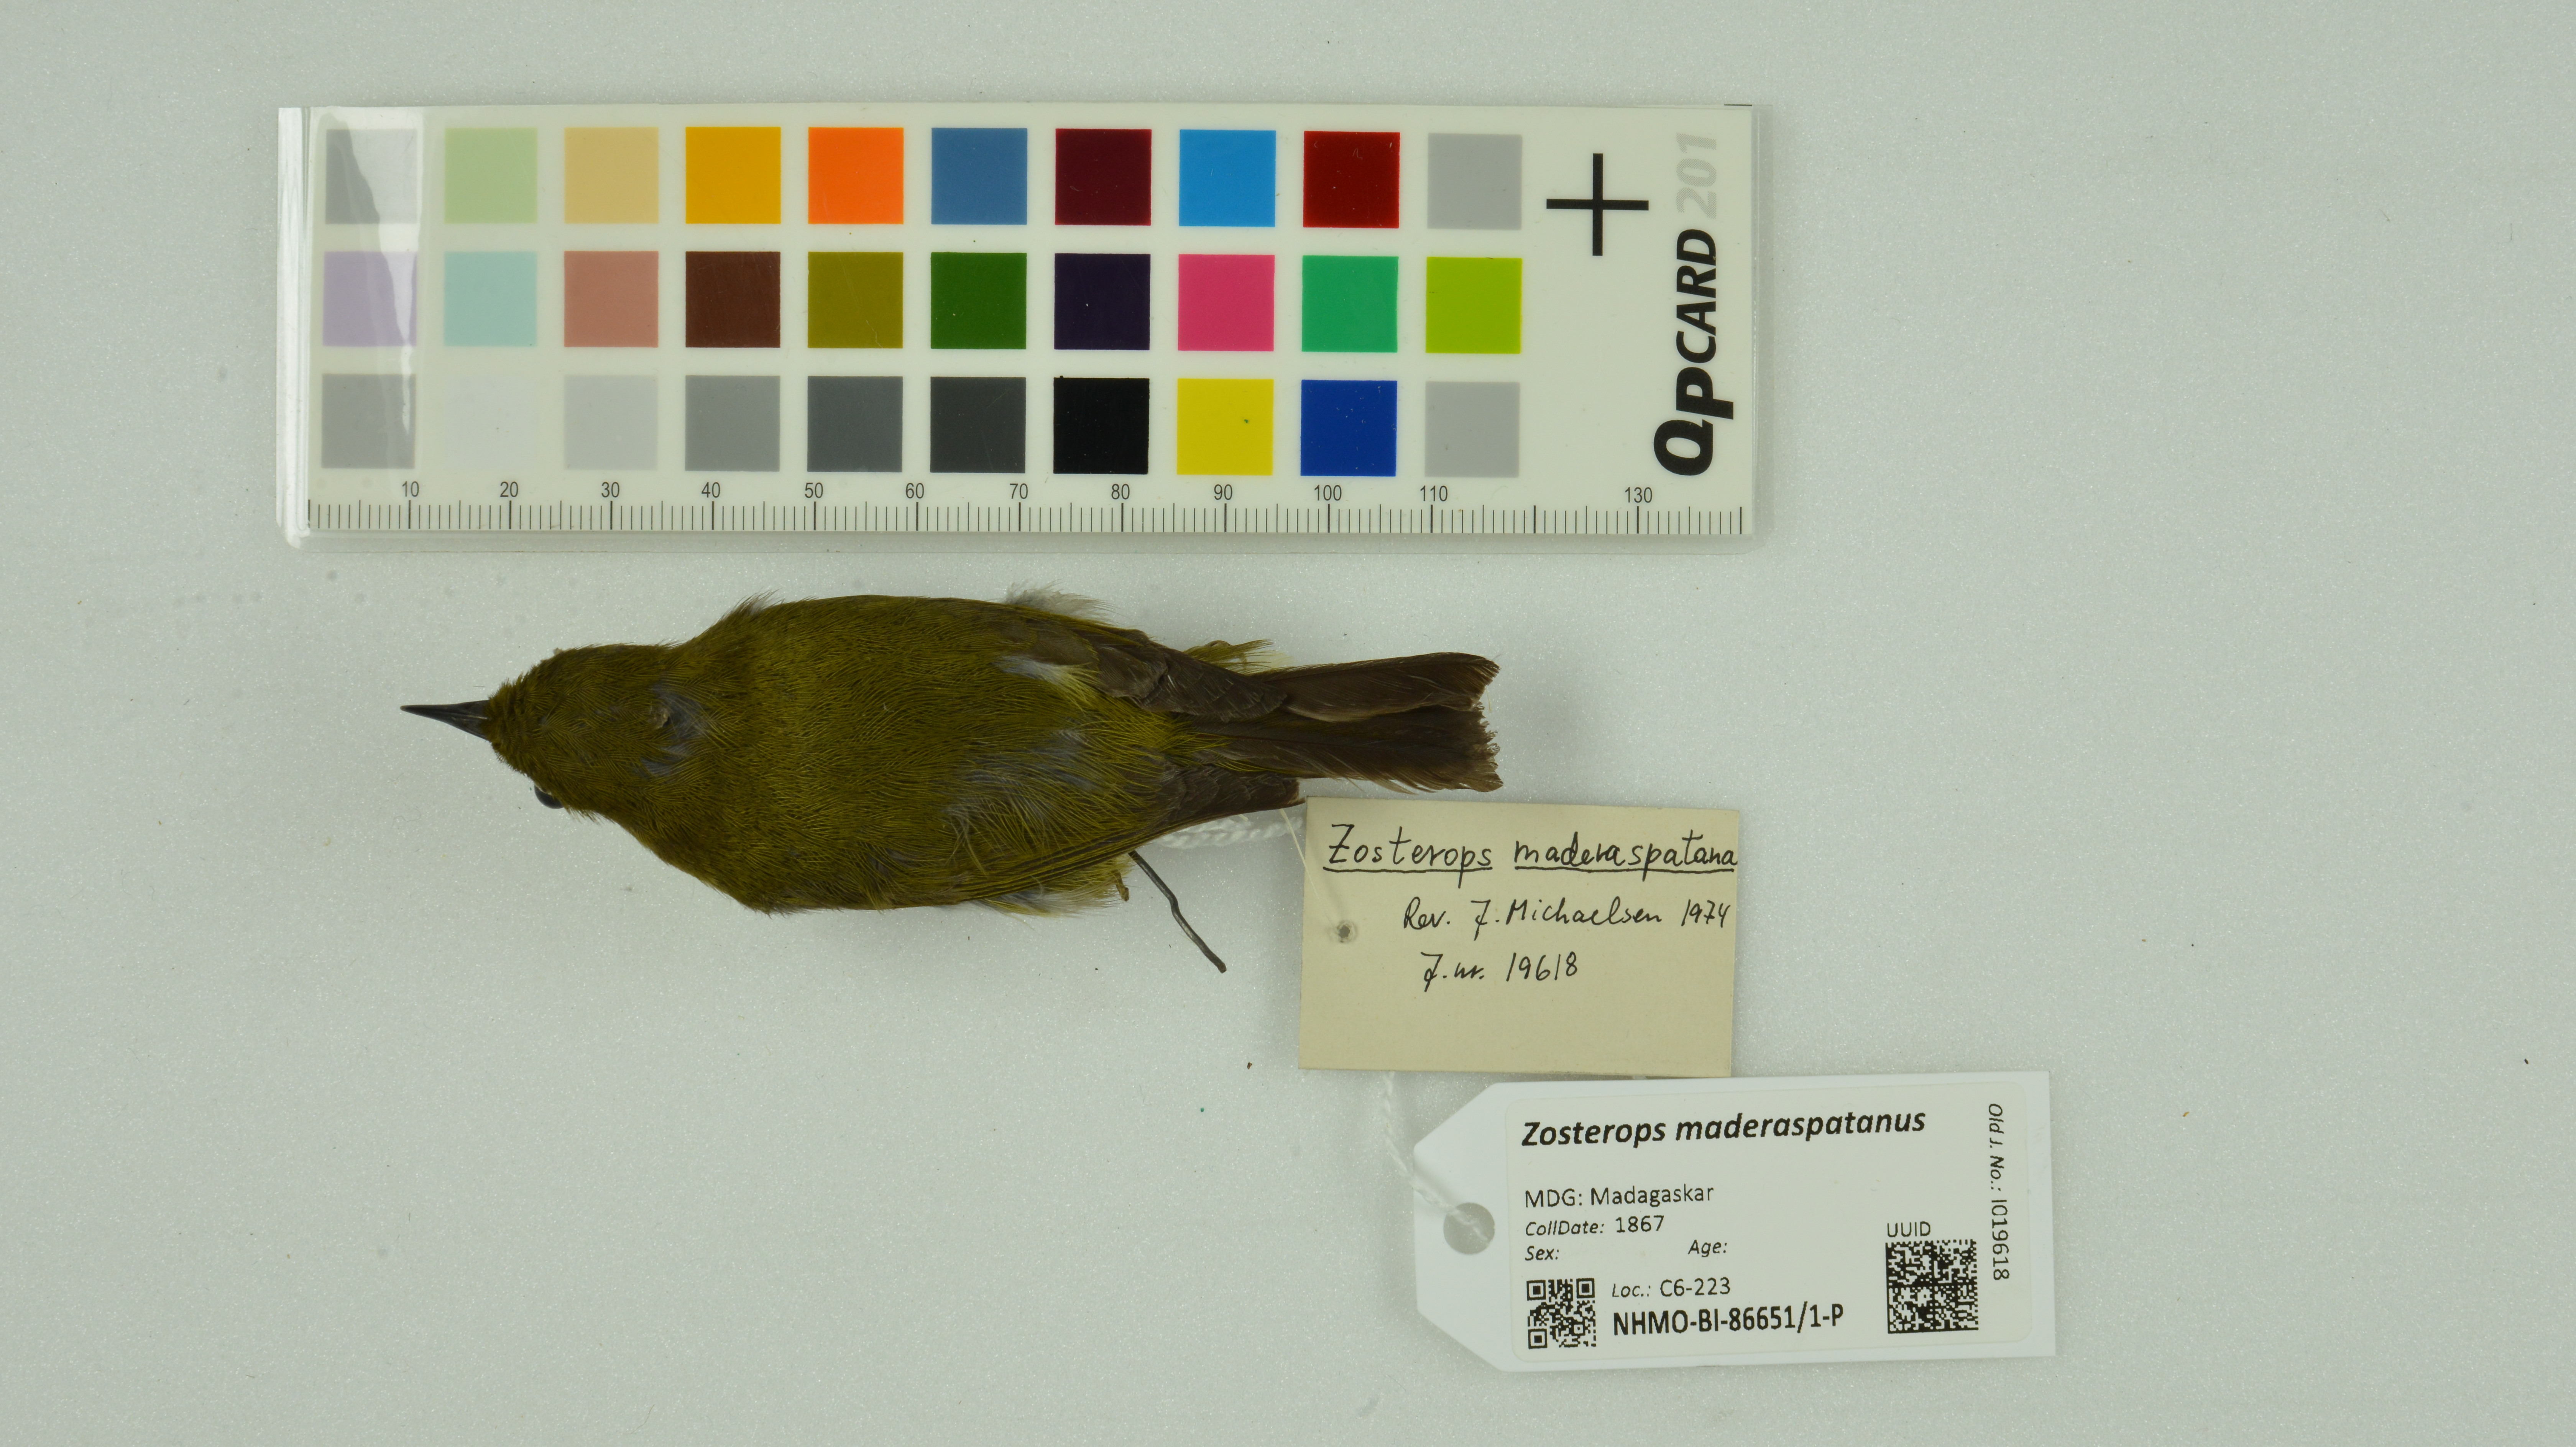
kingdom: Animalia
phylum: Chordata
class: Aves
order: Passeriformes
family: Zosteropidae
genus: Zosterops
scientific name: Zosterops maderaspatanus
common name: Madagascar white-eye
